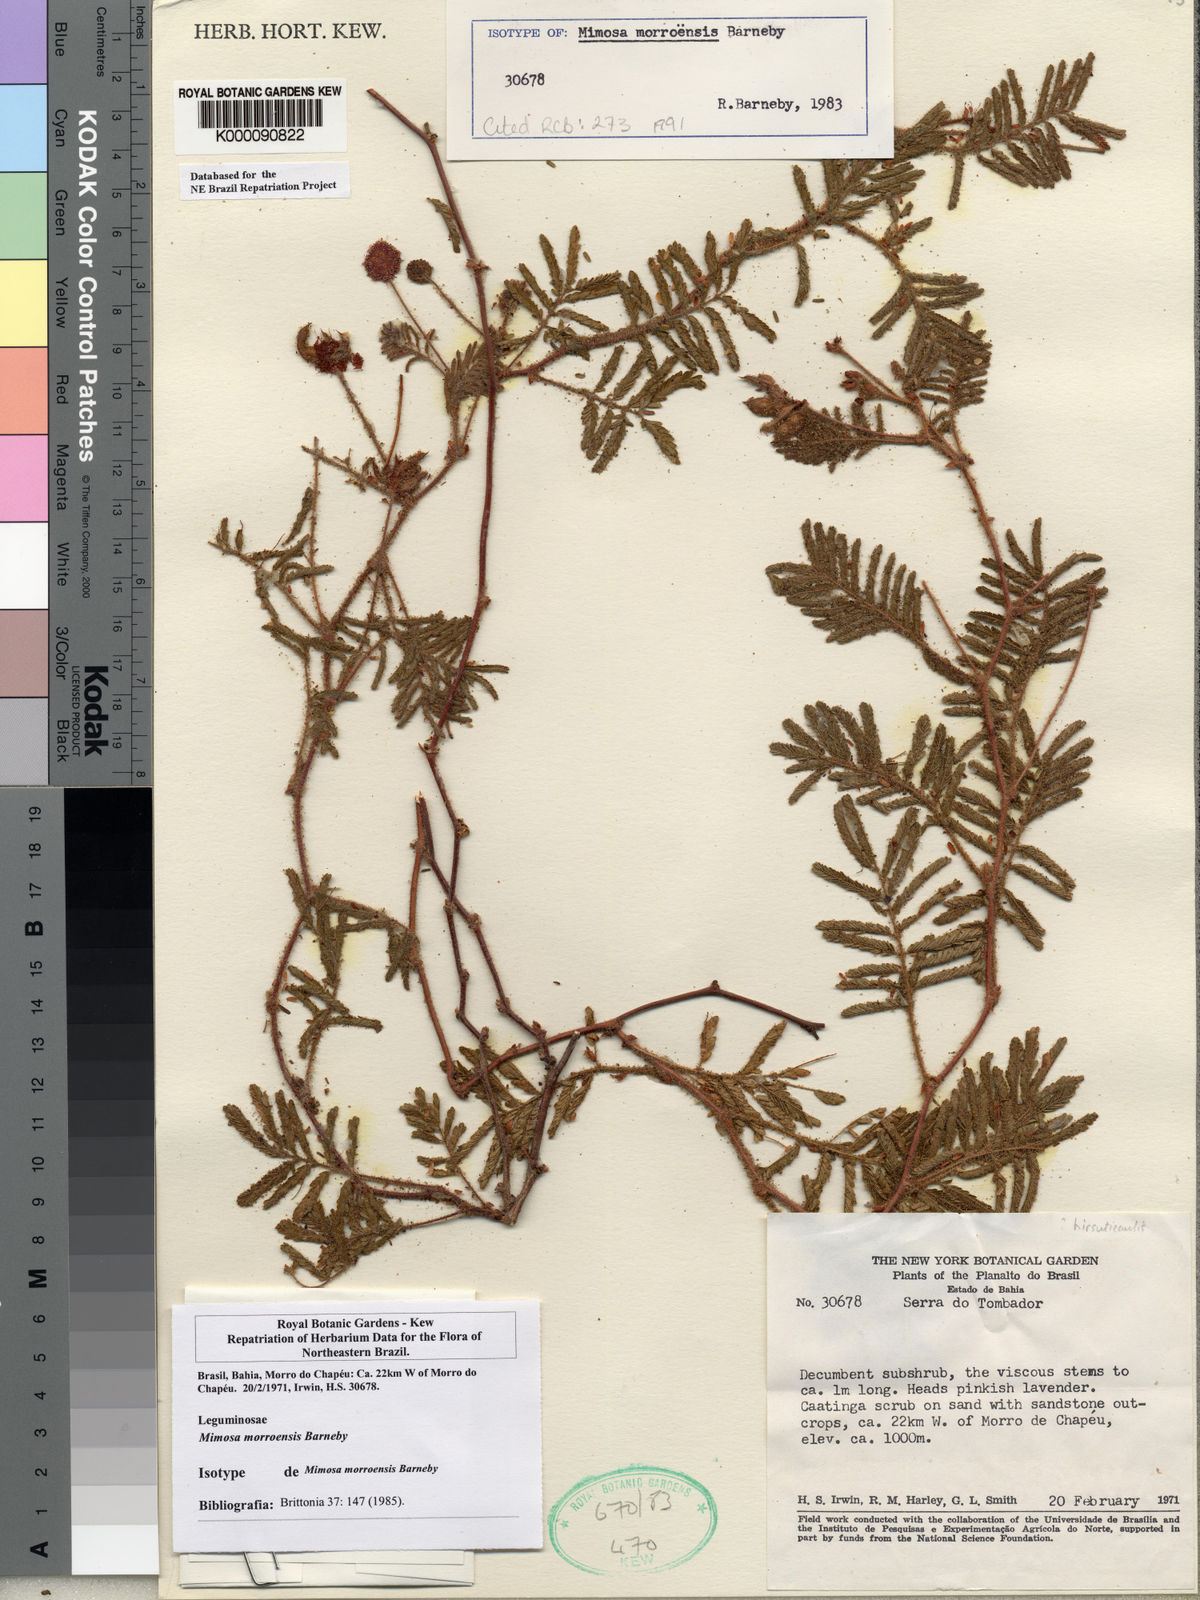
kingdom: Plantae
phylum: Tracheophyta
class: Magnoliopsida
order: Fabales
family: Fabaceae
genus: Mimosa
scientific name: Mimosa morroensis
